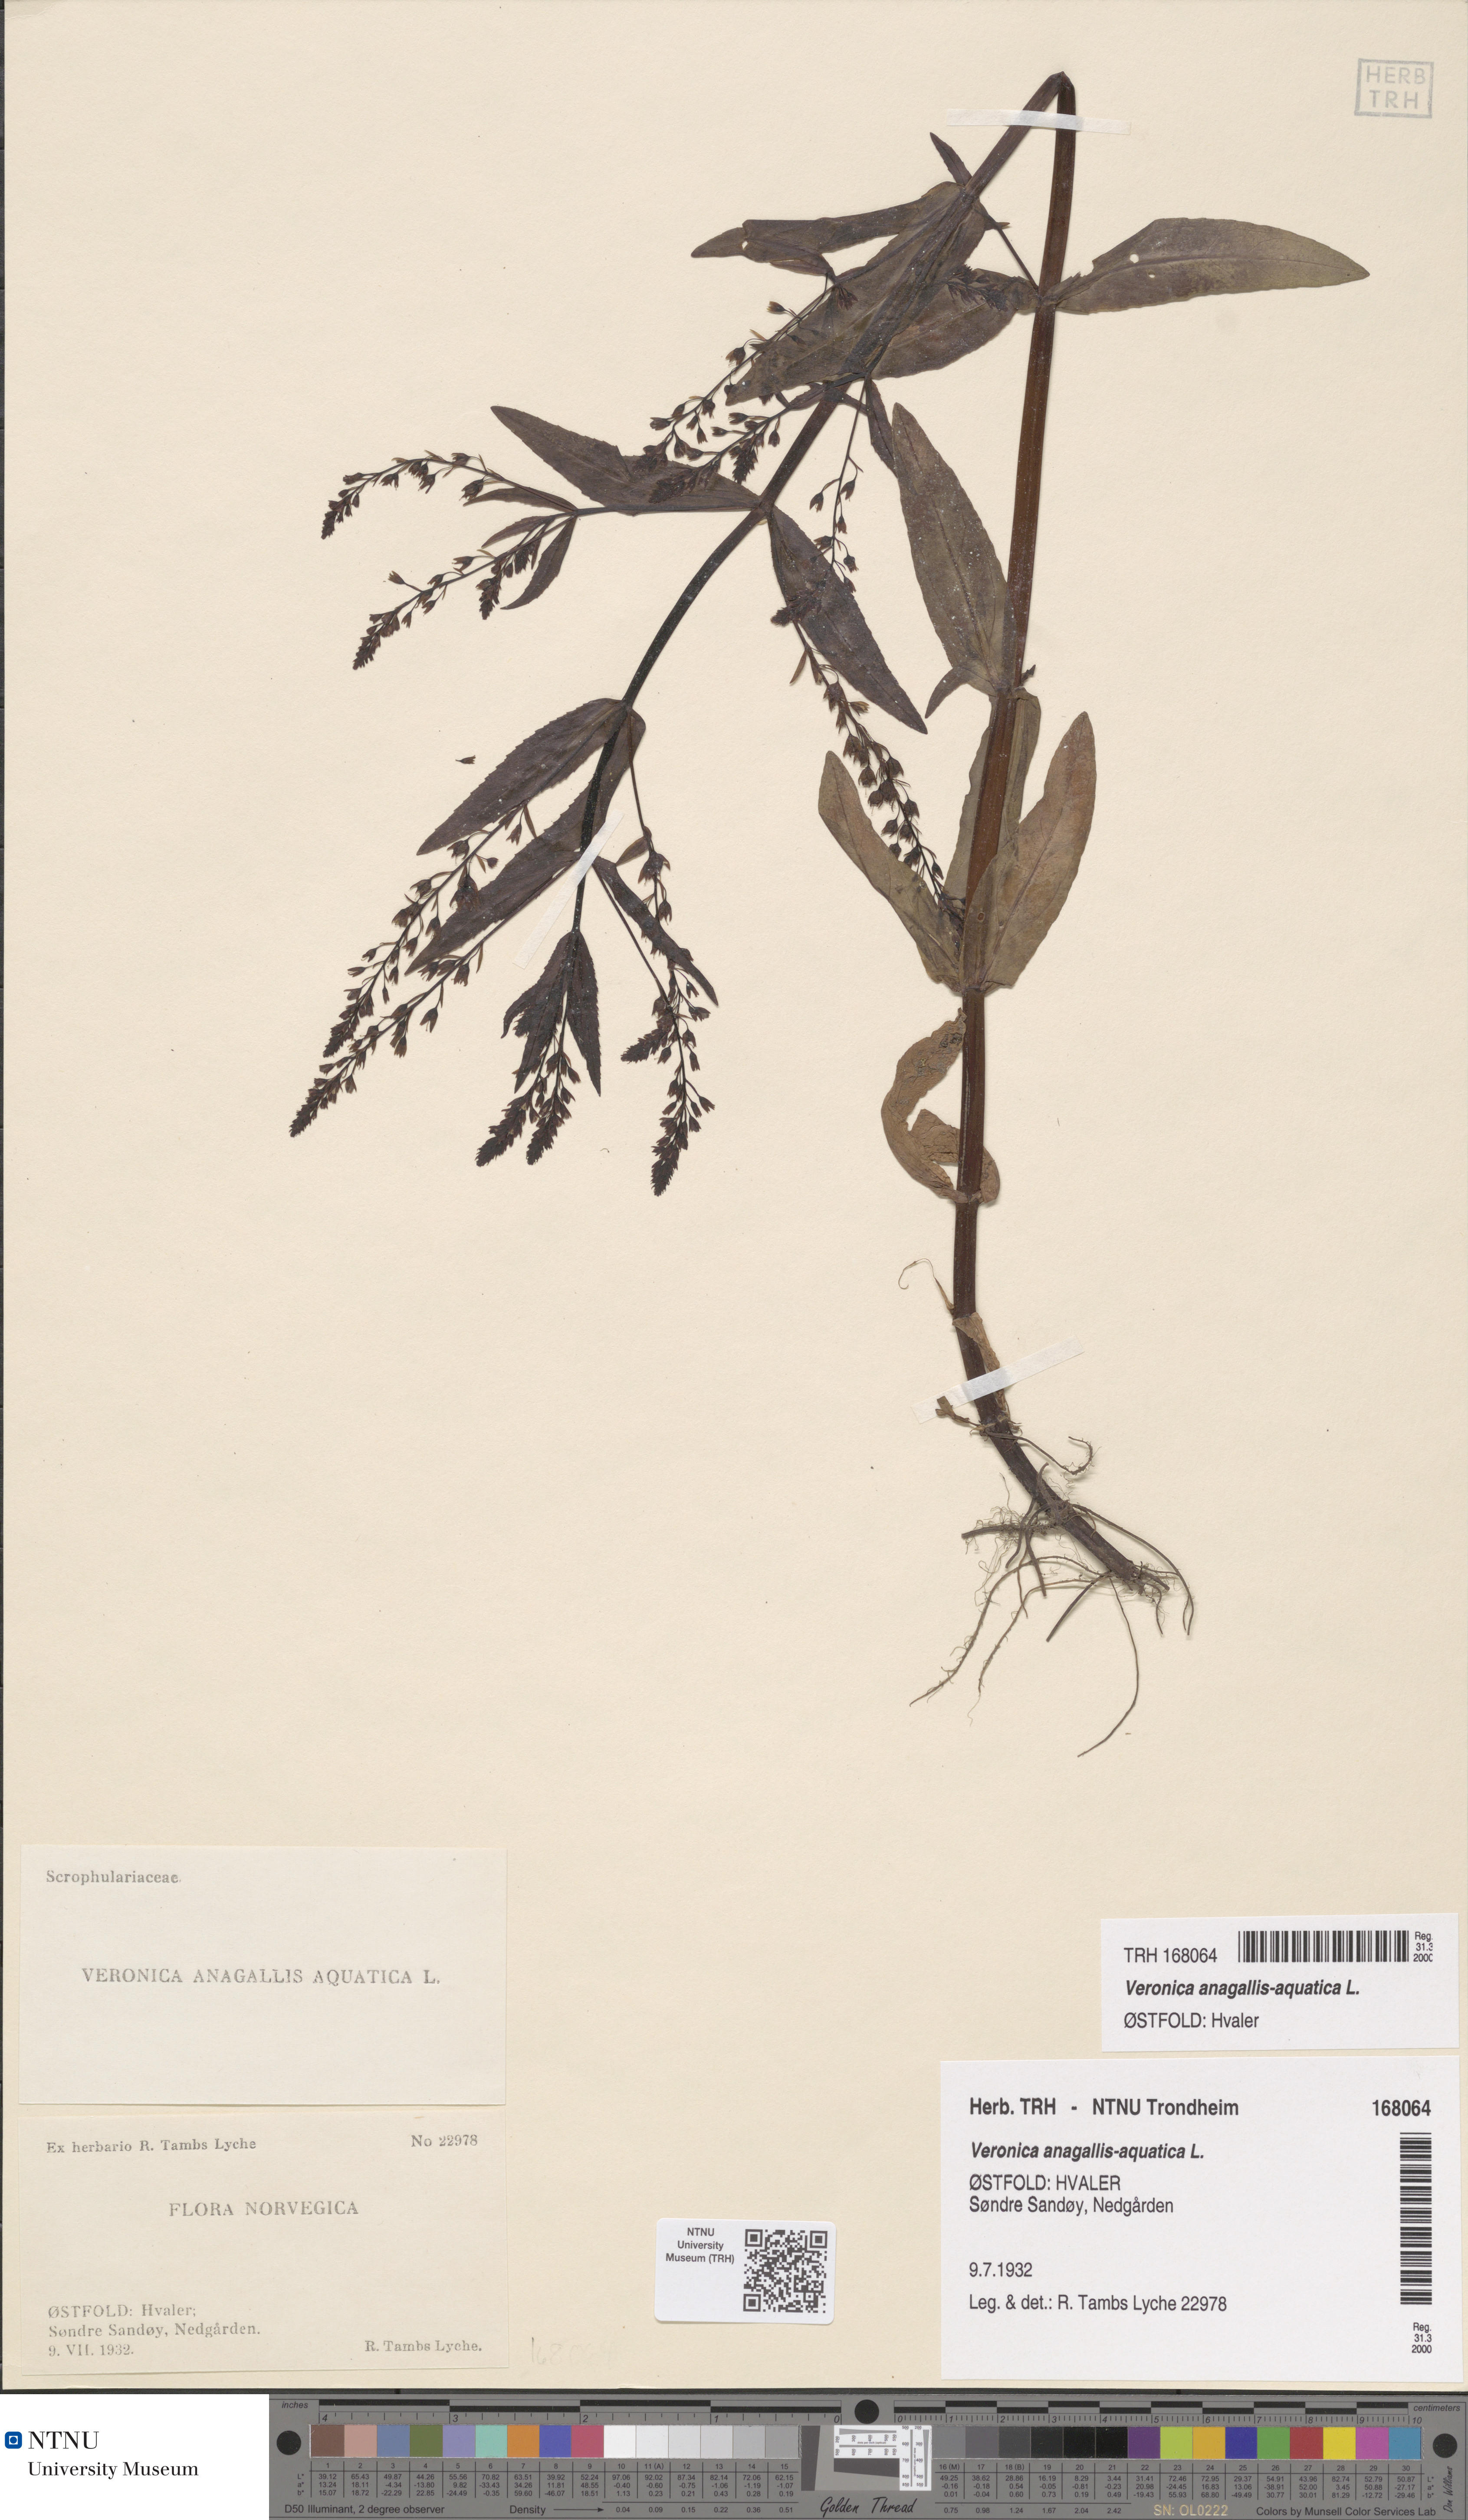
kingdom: Plantae
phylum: Tracheophyta
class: Magnoliopsida
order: Lamiales
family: Plantaginaceae
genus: Veronica
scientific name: Veronica anagallis-aquatica
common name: Water speedwell
